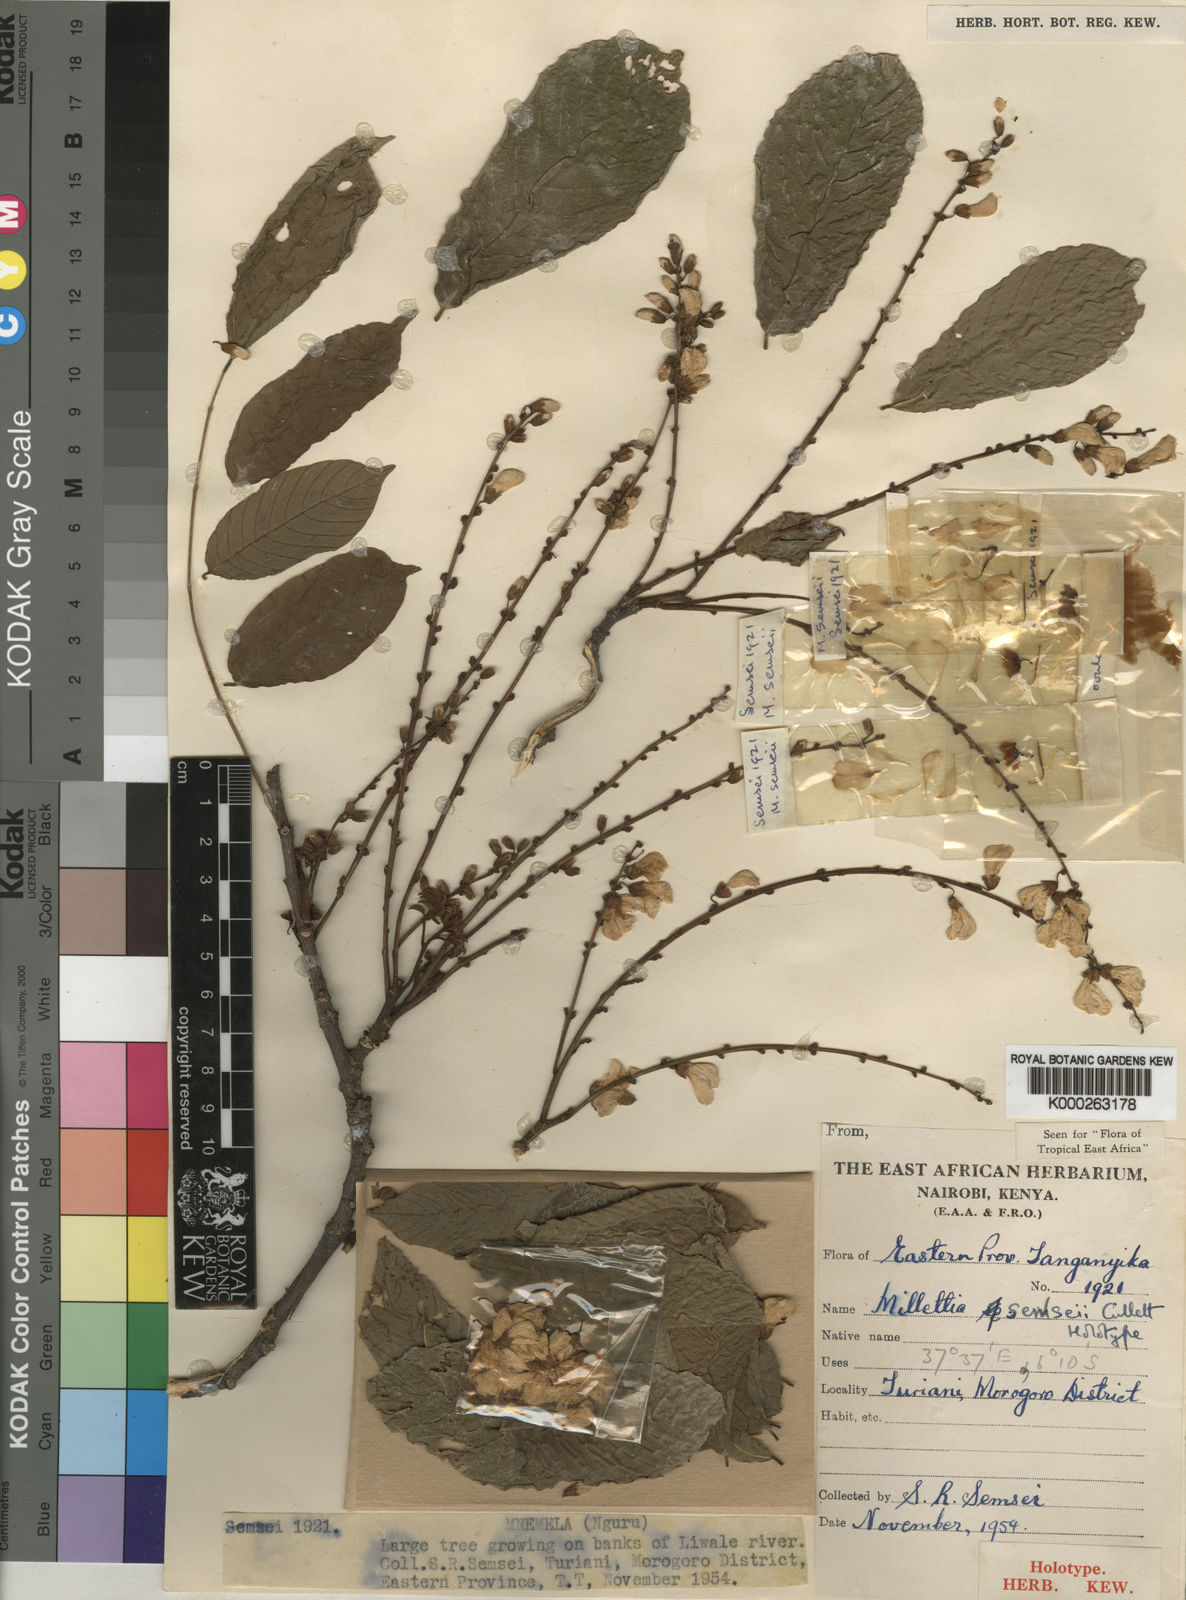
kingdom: Plantae
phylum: Tracheophyta
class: Magnoliopsida
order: Fabales
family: Fabaceae
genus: Millettia
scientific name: Millettia semseii
